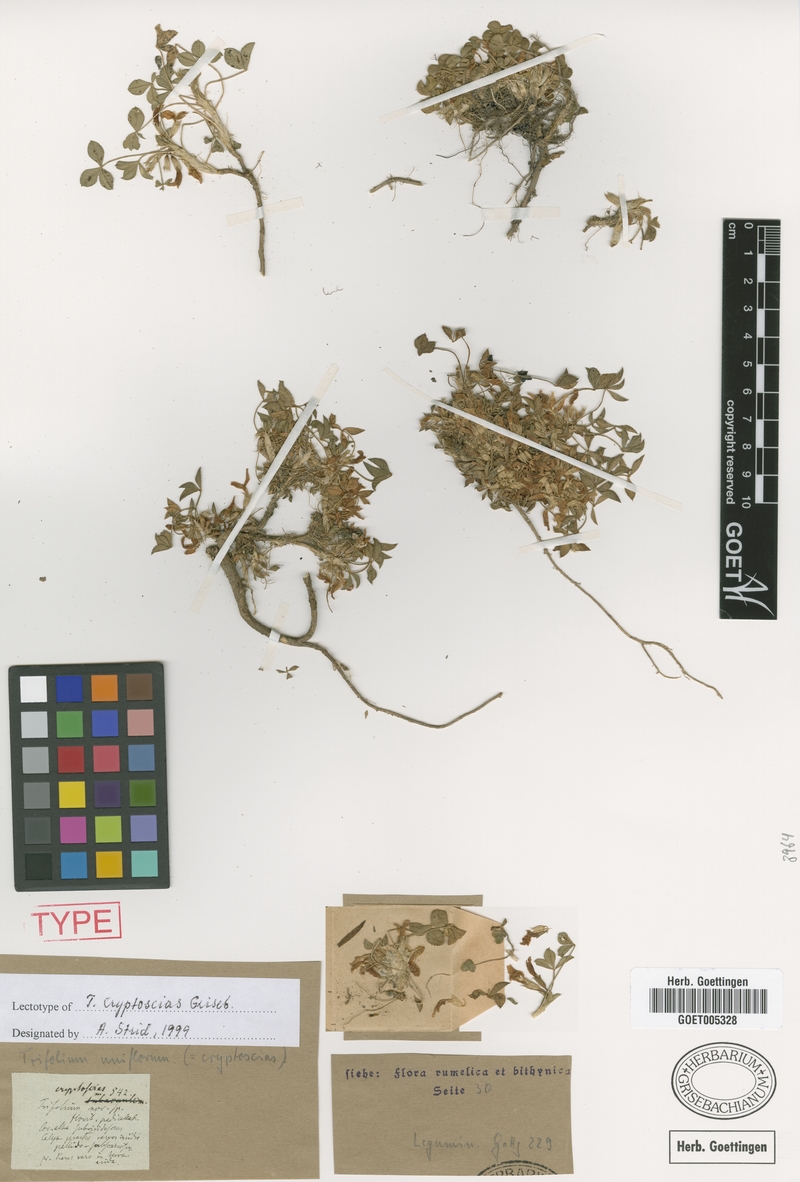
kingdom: Plantae
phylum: Tracheophyta
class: Magnoliopsida
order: Fabales
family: Fabaceae
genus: Trifolium
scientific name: Trifolium uniflorum
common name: One-flower clover
